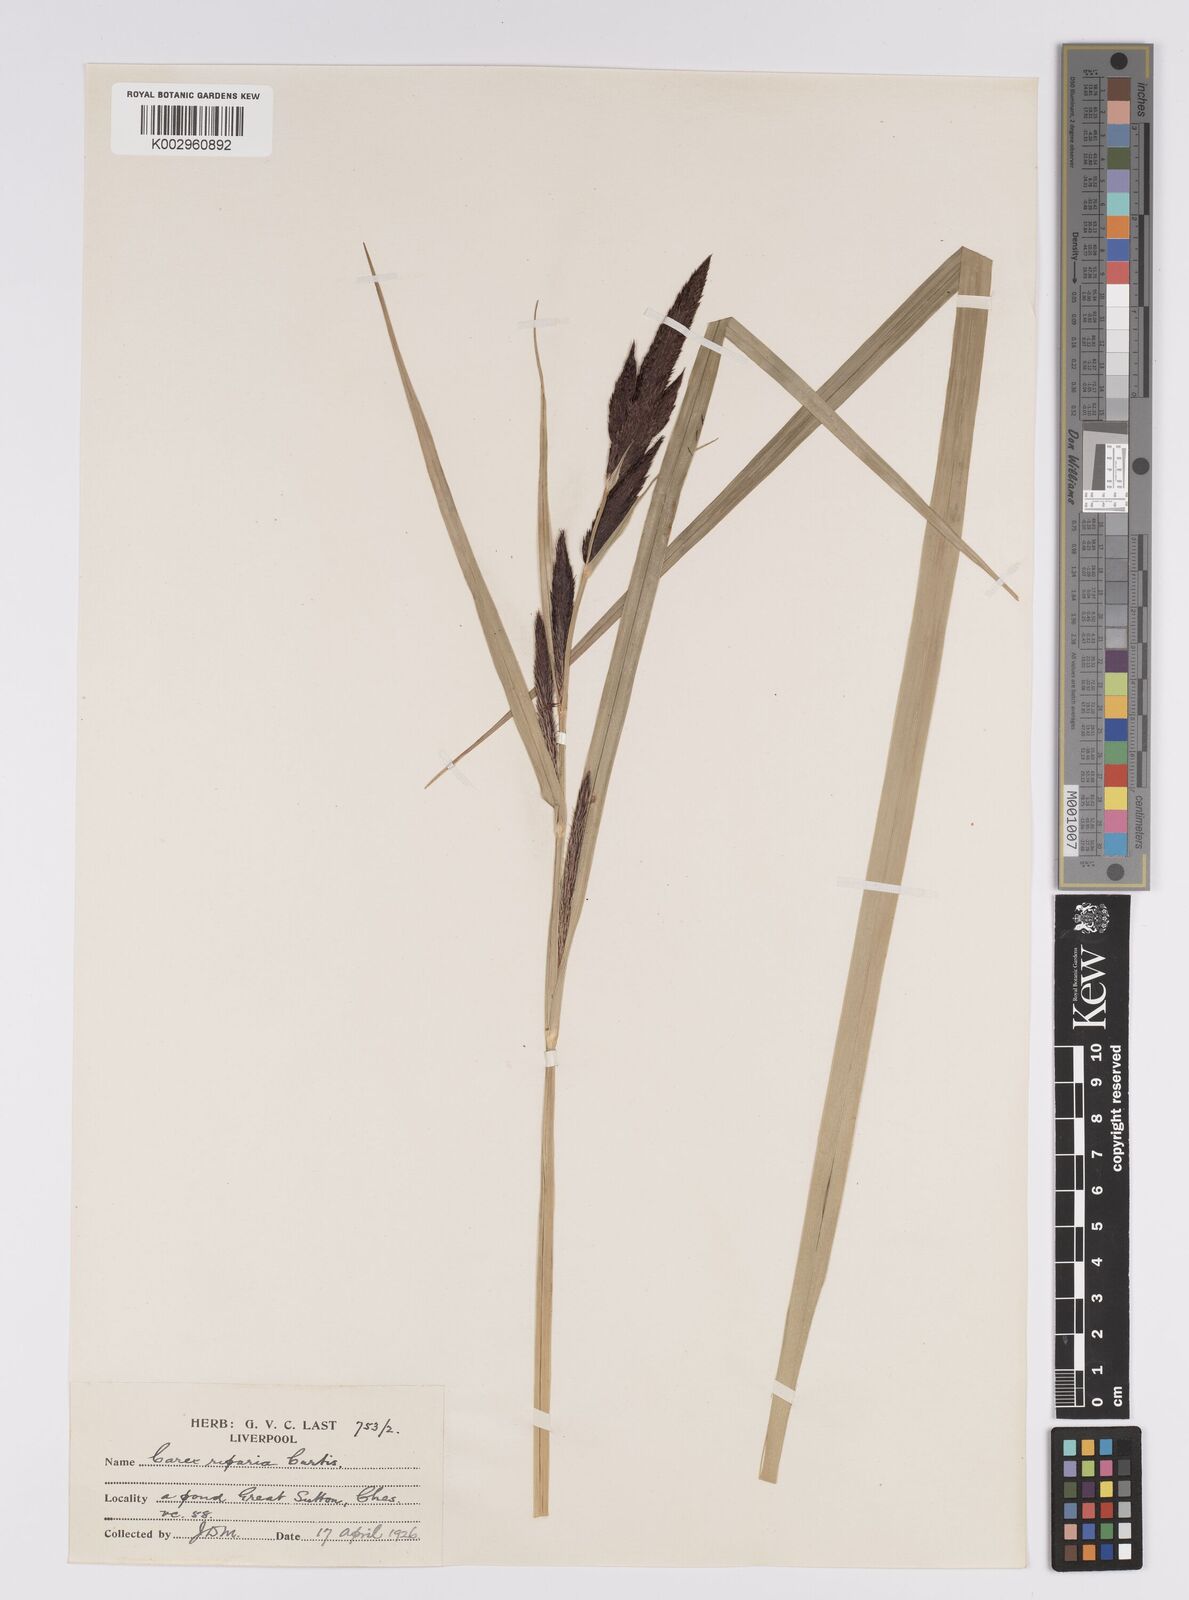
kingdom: Plantae
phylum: Tracheophyta
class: Liliopsida
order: Poales
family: Cyperaceae
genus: Carex
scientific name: Carex riparia
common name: Greater pond-sedge
